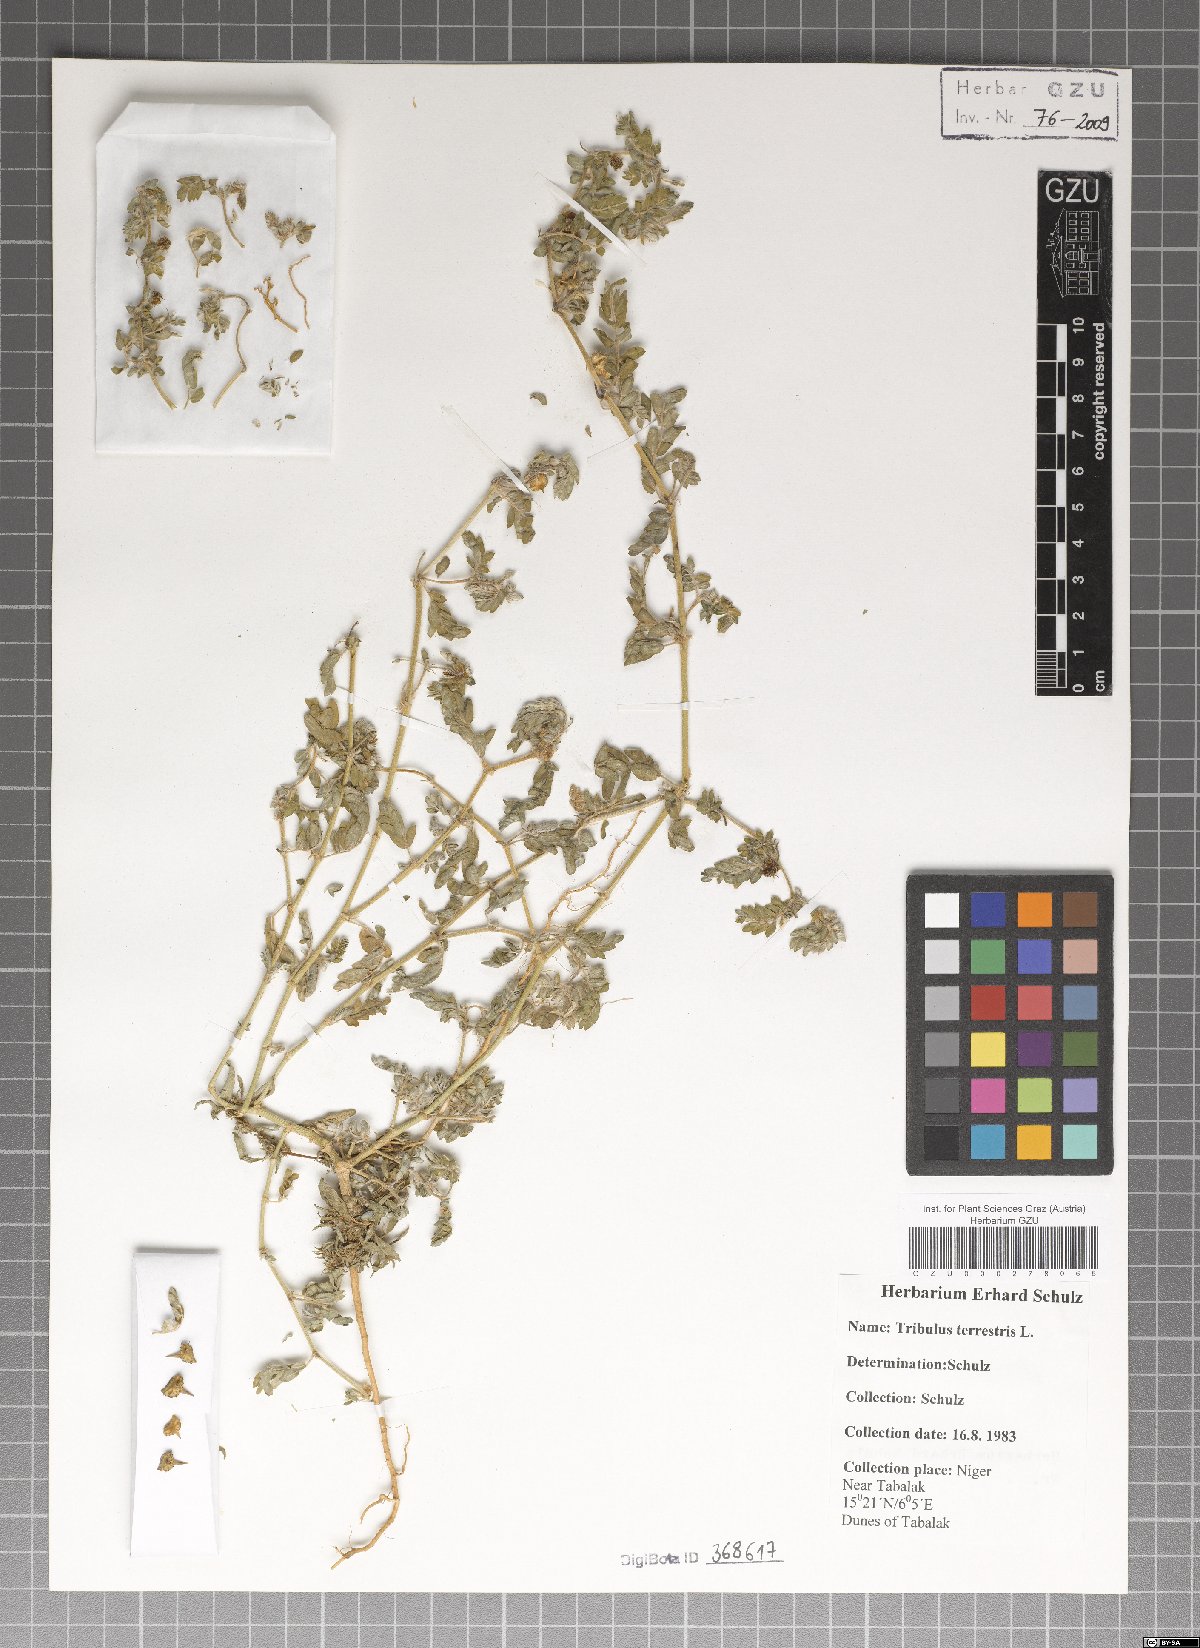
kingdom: Plantae
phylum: Tracheophyta
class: Magnoliopsida
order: Zygophyllales
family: Zygophyllaceae
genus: Tribulus
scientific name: Tribulus terrestris
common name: Puncturevine
